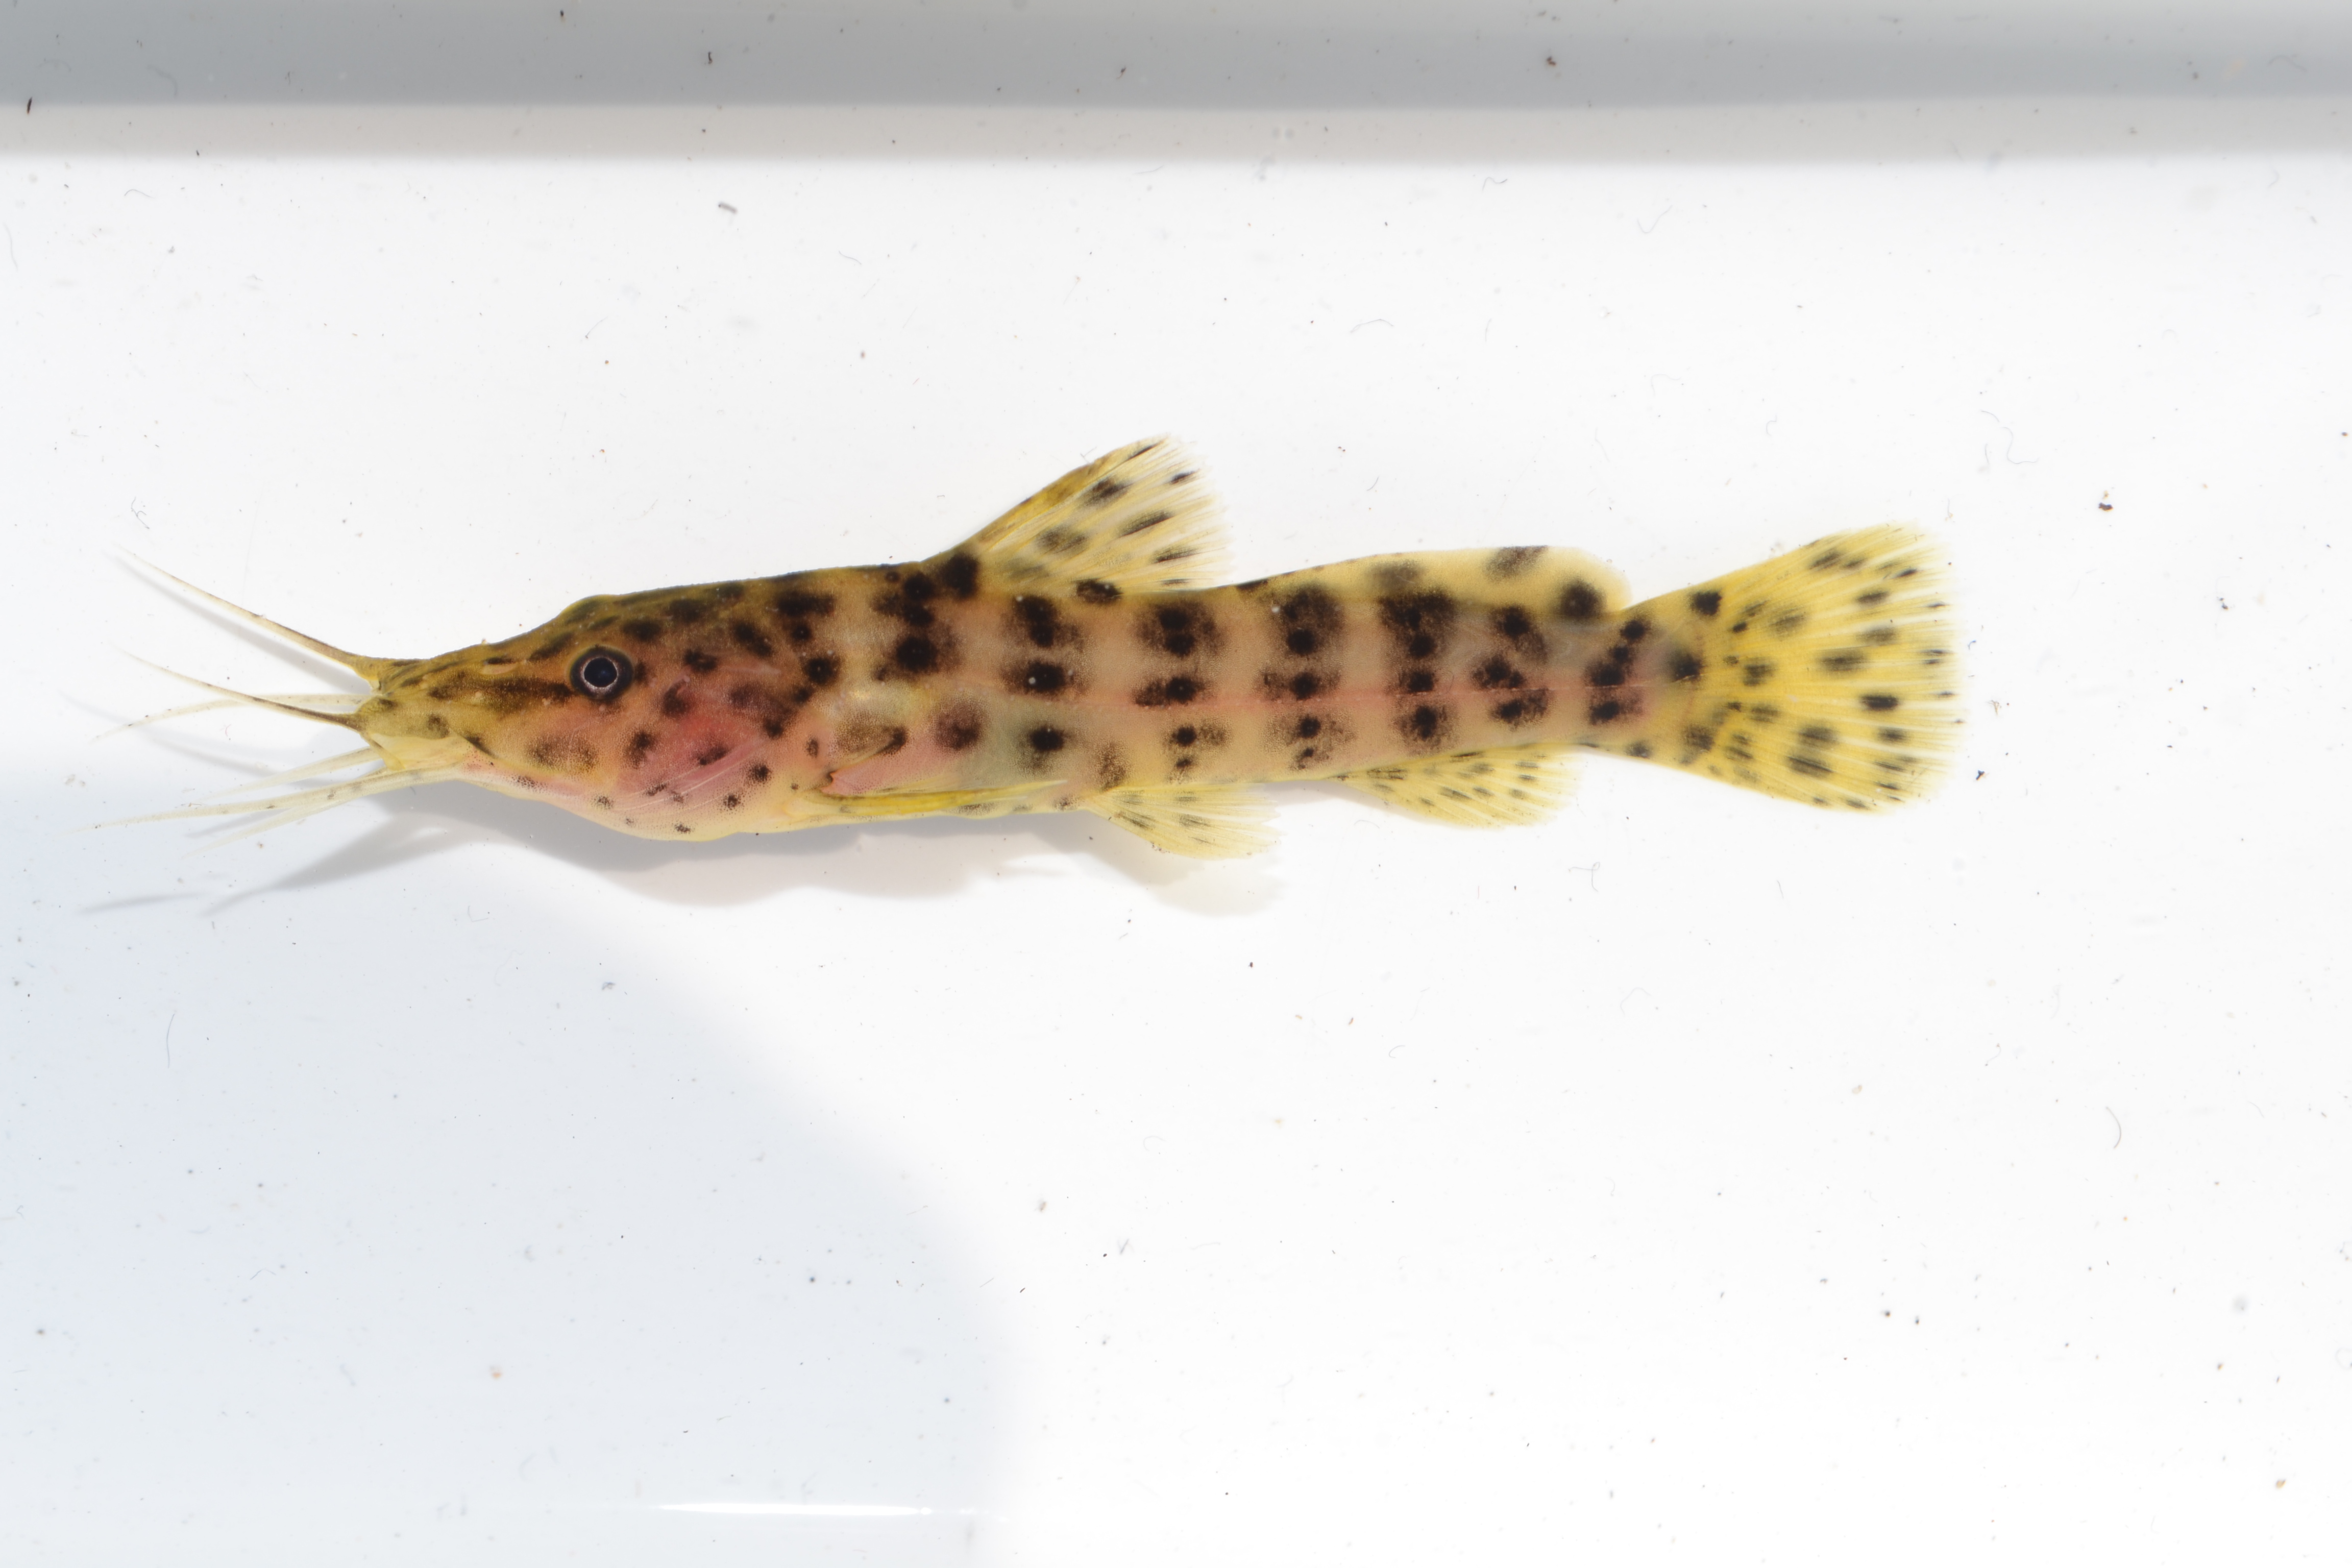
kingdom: Animalia
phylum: Chordata
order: Siluriformes
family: Claroteidae
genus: Parauchenoglanis
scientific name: Parauchenoglanis ngamensis
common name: Zambezi grunter
